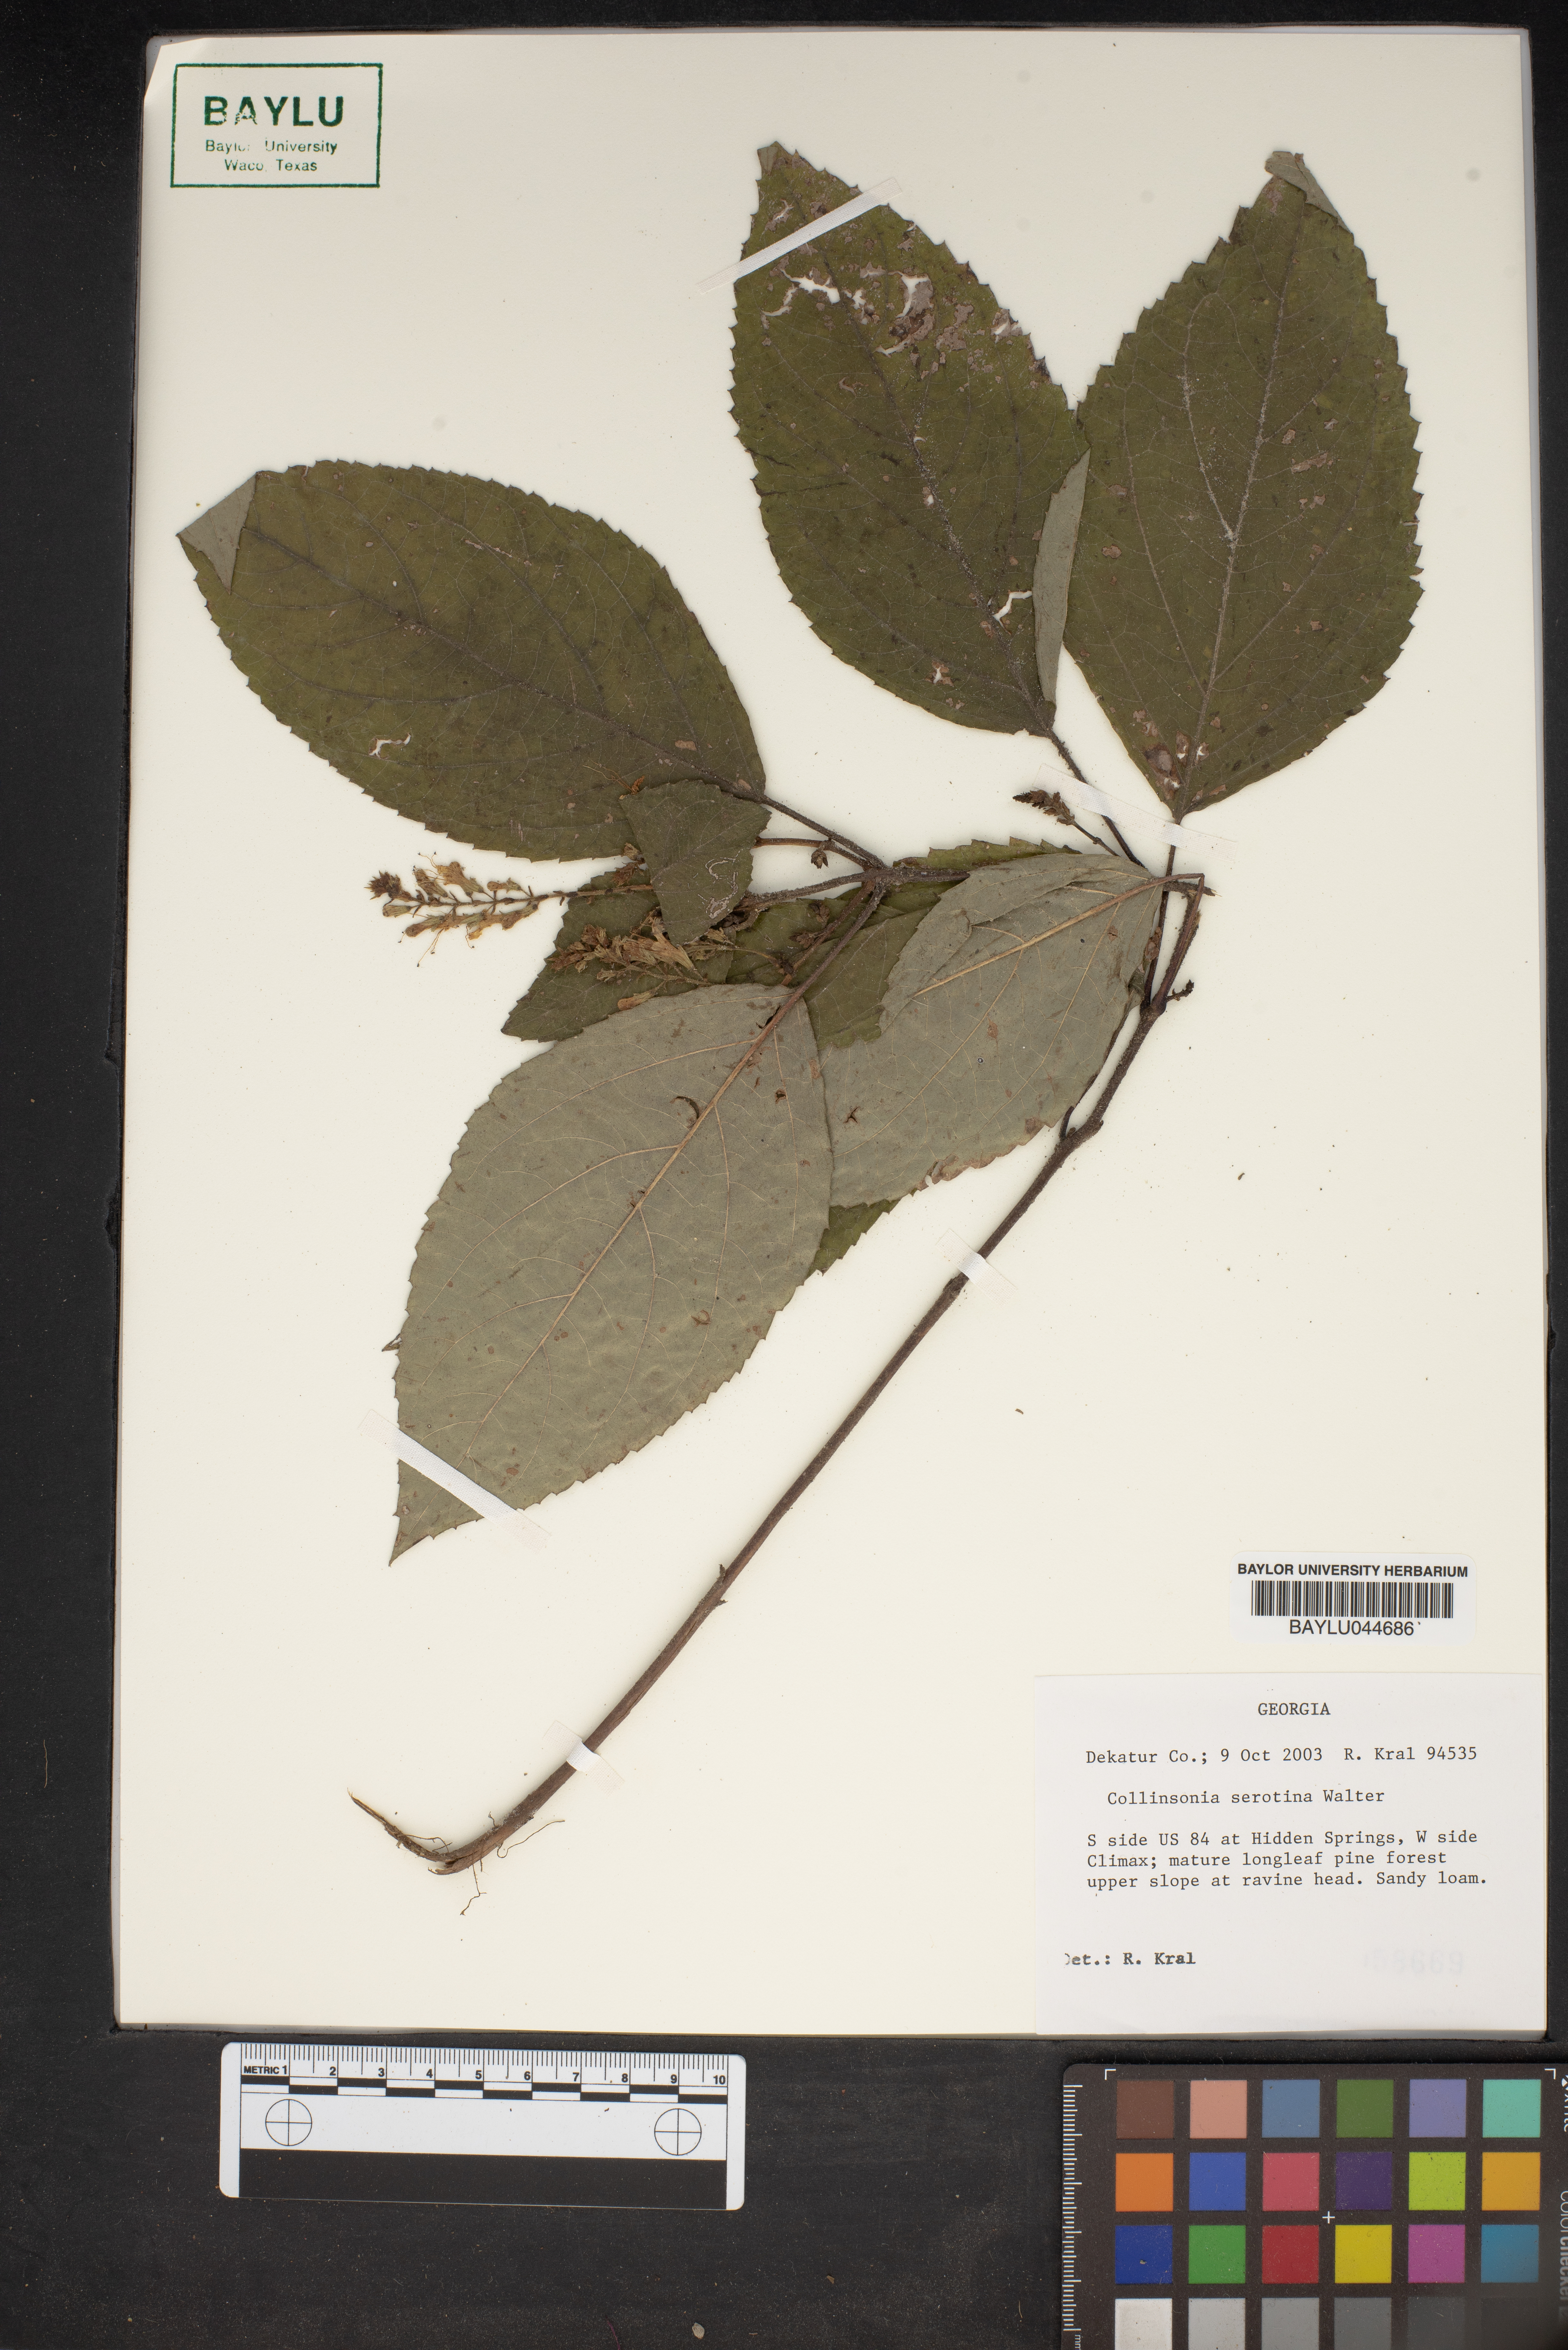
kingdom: Plantae
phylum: Tracheophyta
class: Magnoliopsida
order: Lamiales
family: Lamiaceae
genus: Collinsonia
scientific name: Collinsonia punctata
